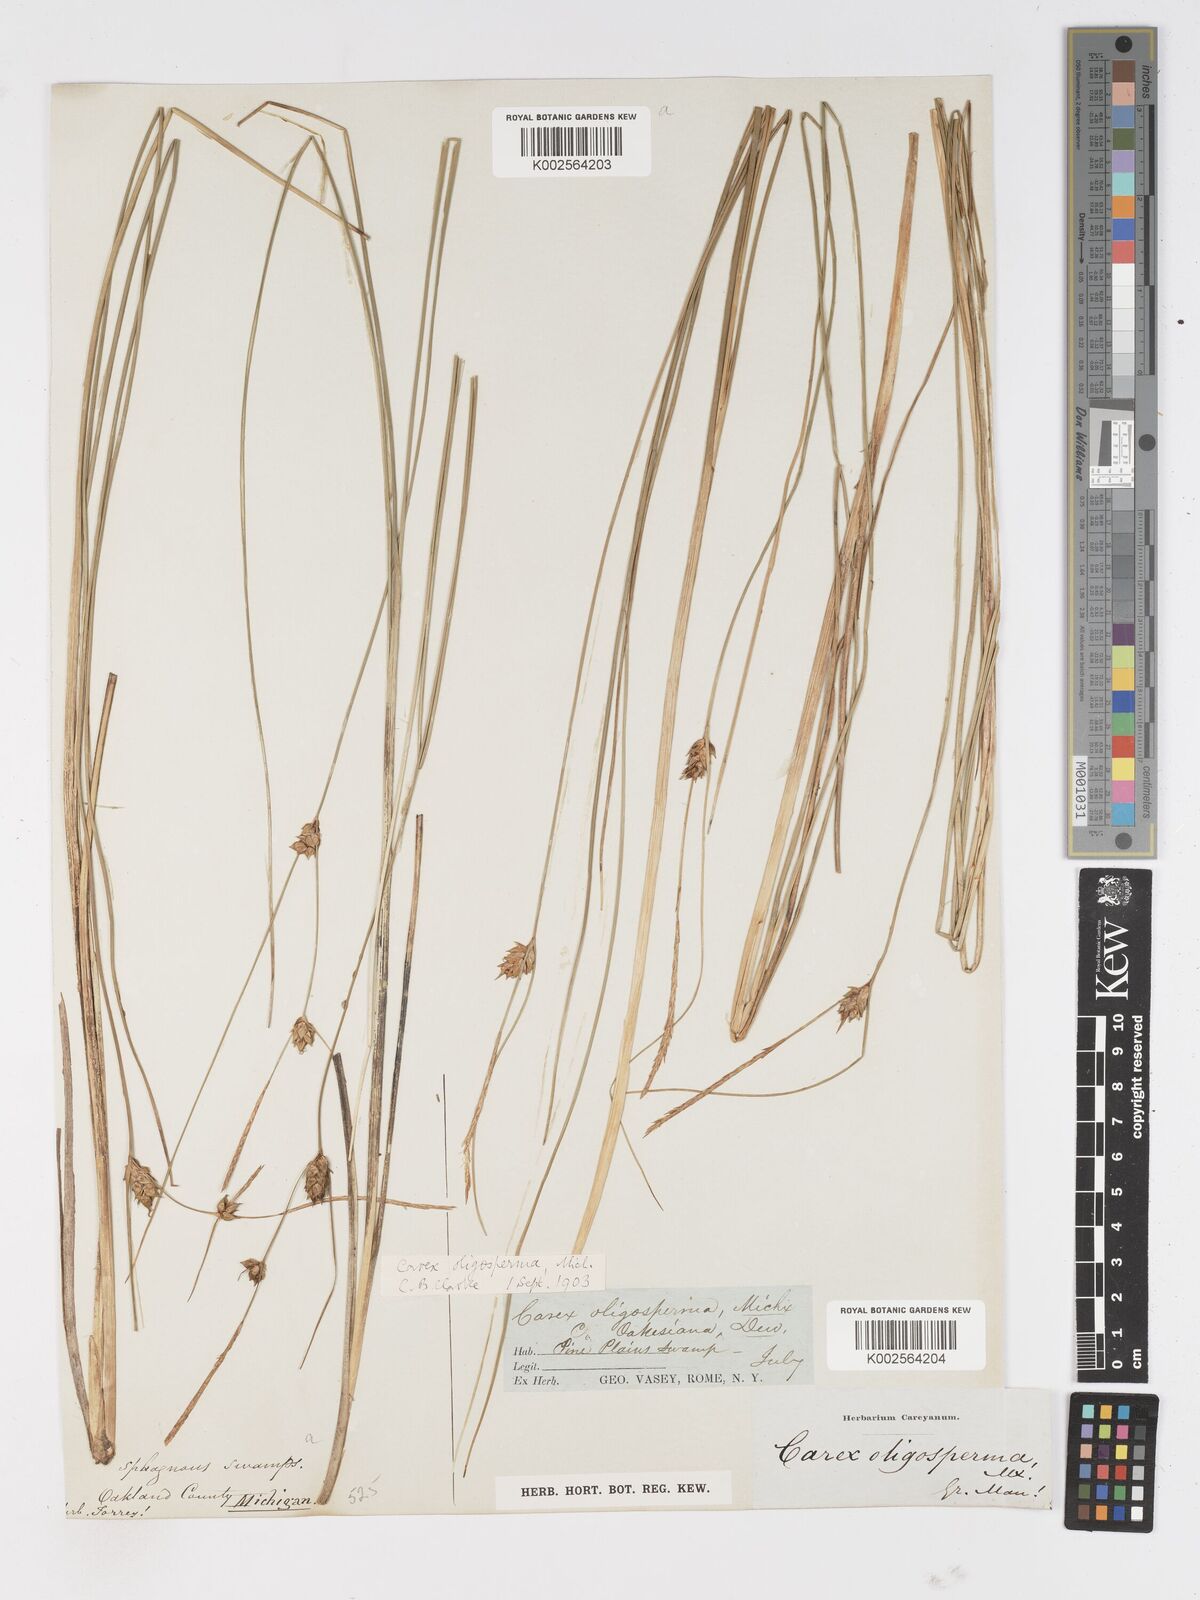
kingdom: Plantae
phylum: Tracheophyta
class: Liliopsida
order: Poales
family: Cyperaceae
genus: Carex
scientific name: Carex oligosperma
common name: Few-seed sedge
